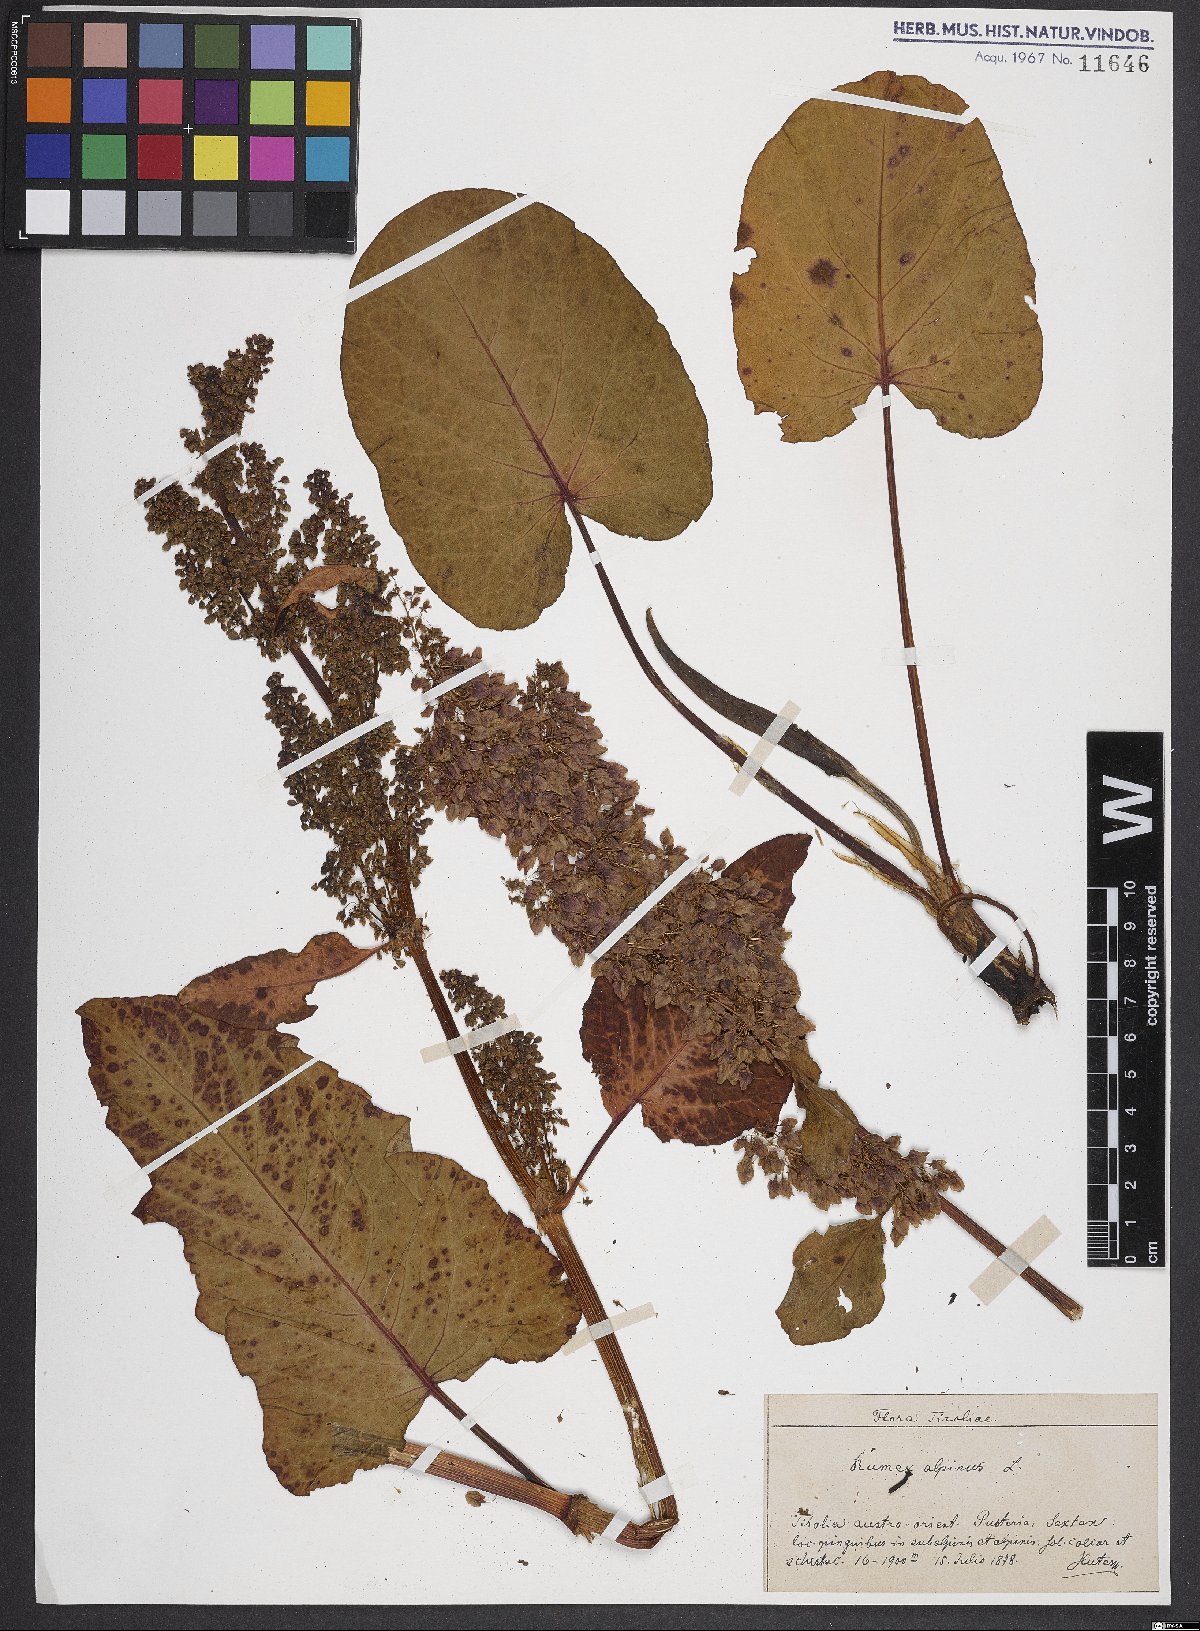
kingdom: Plantae
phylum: Tracheophyta
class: Magnoliopsida
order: Caryophyllales
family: Polygonaceae
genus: Rumex
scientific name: Rumex alpinus
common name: Alpine dock
